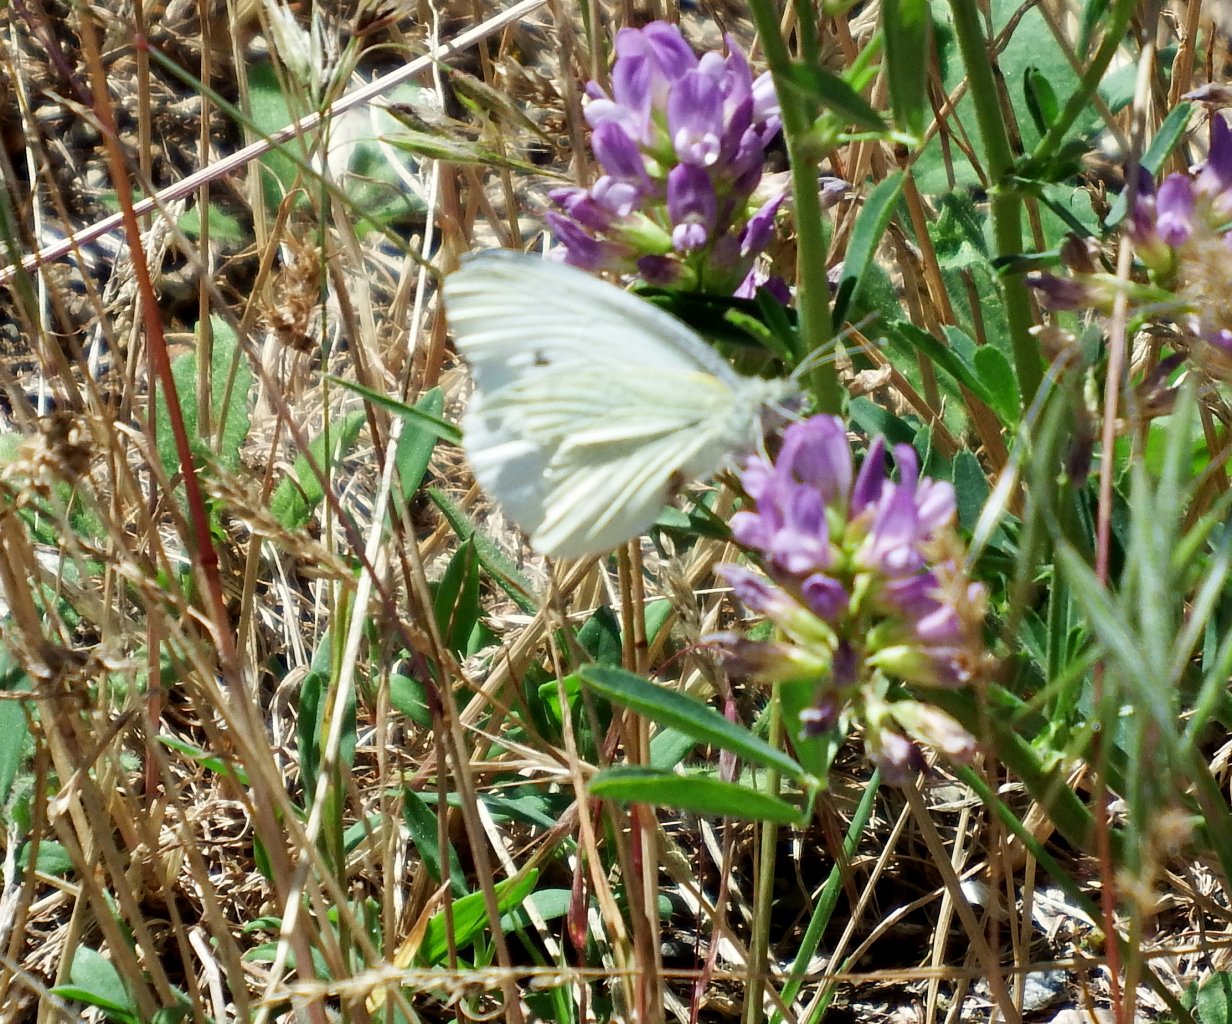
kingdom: Animalia
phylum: Arthropoda
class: Insecta
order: Lepidoptera
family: Pieridae
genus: Pieris
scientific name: Pieris rapae
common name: Cabbage White
